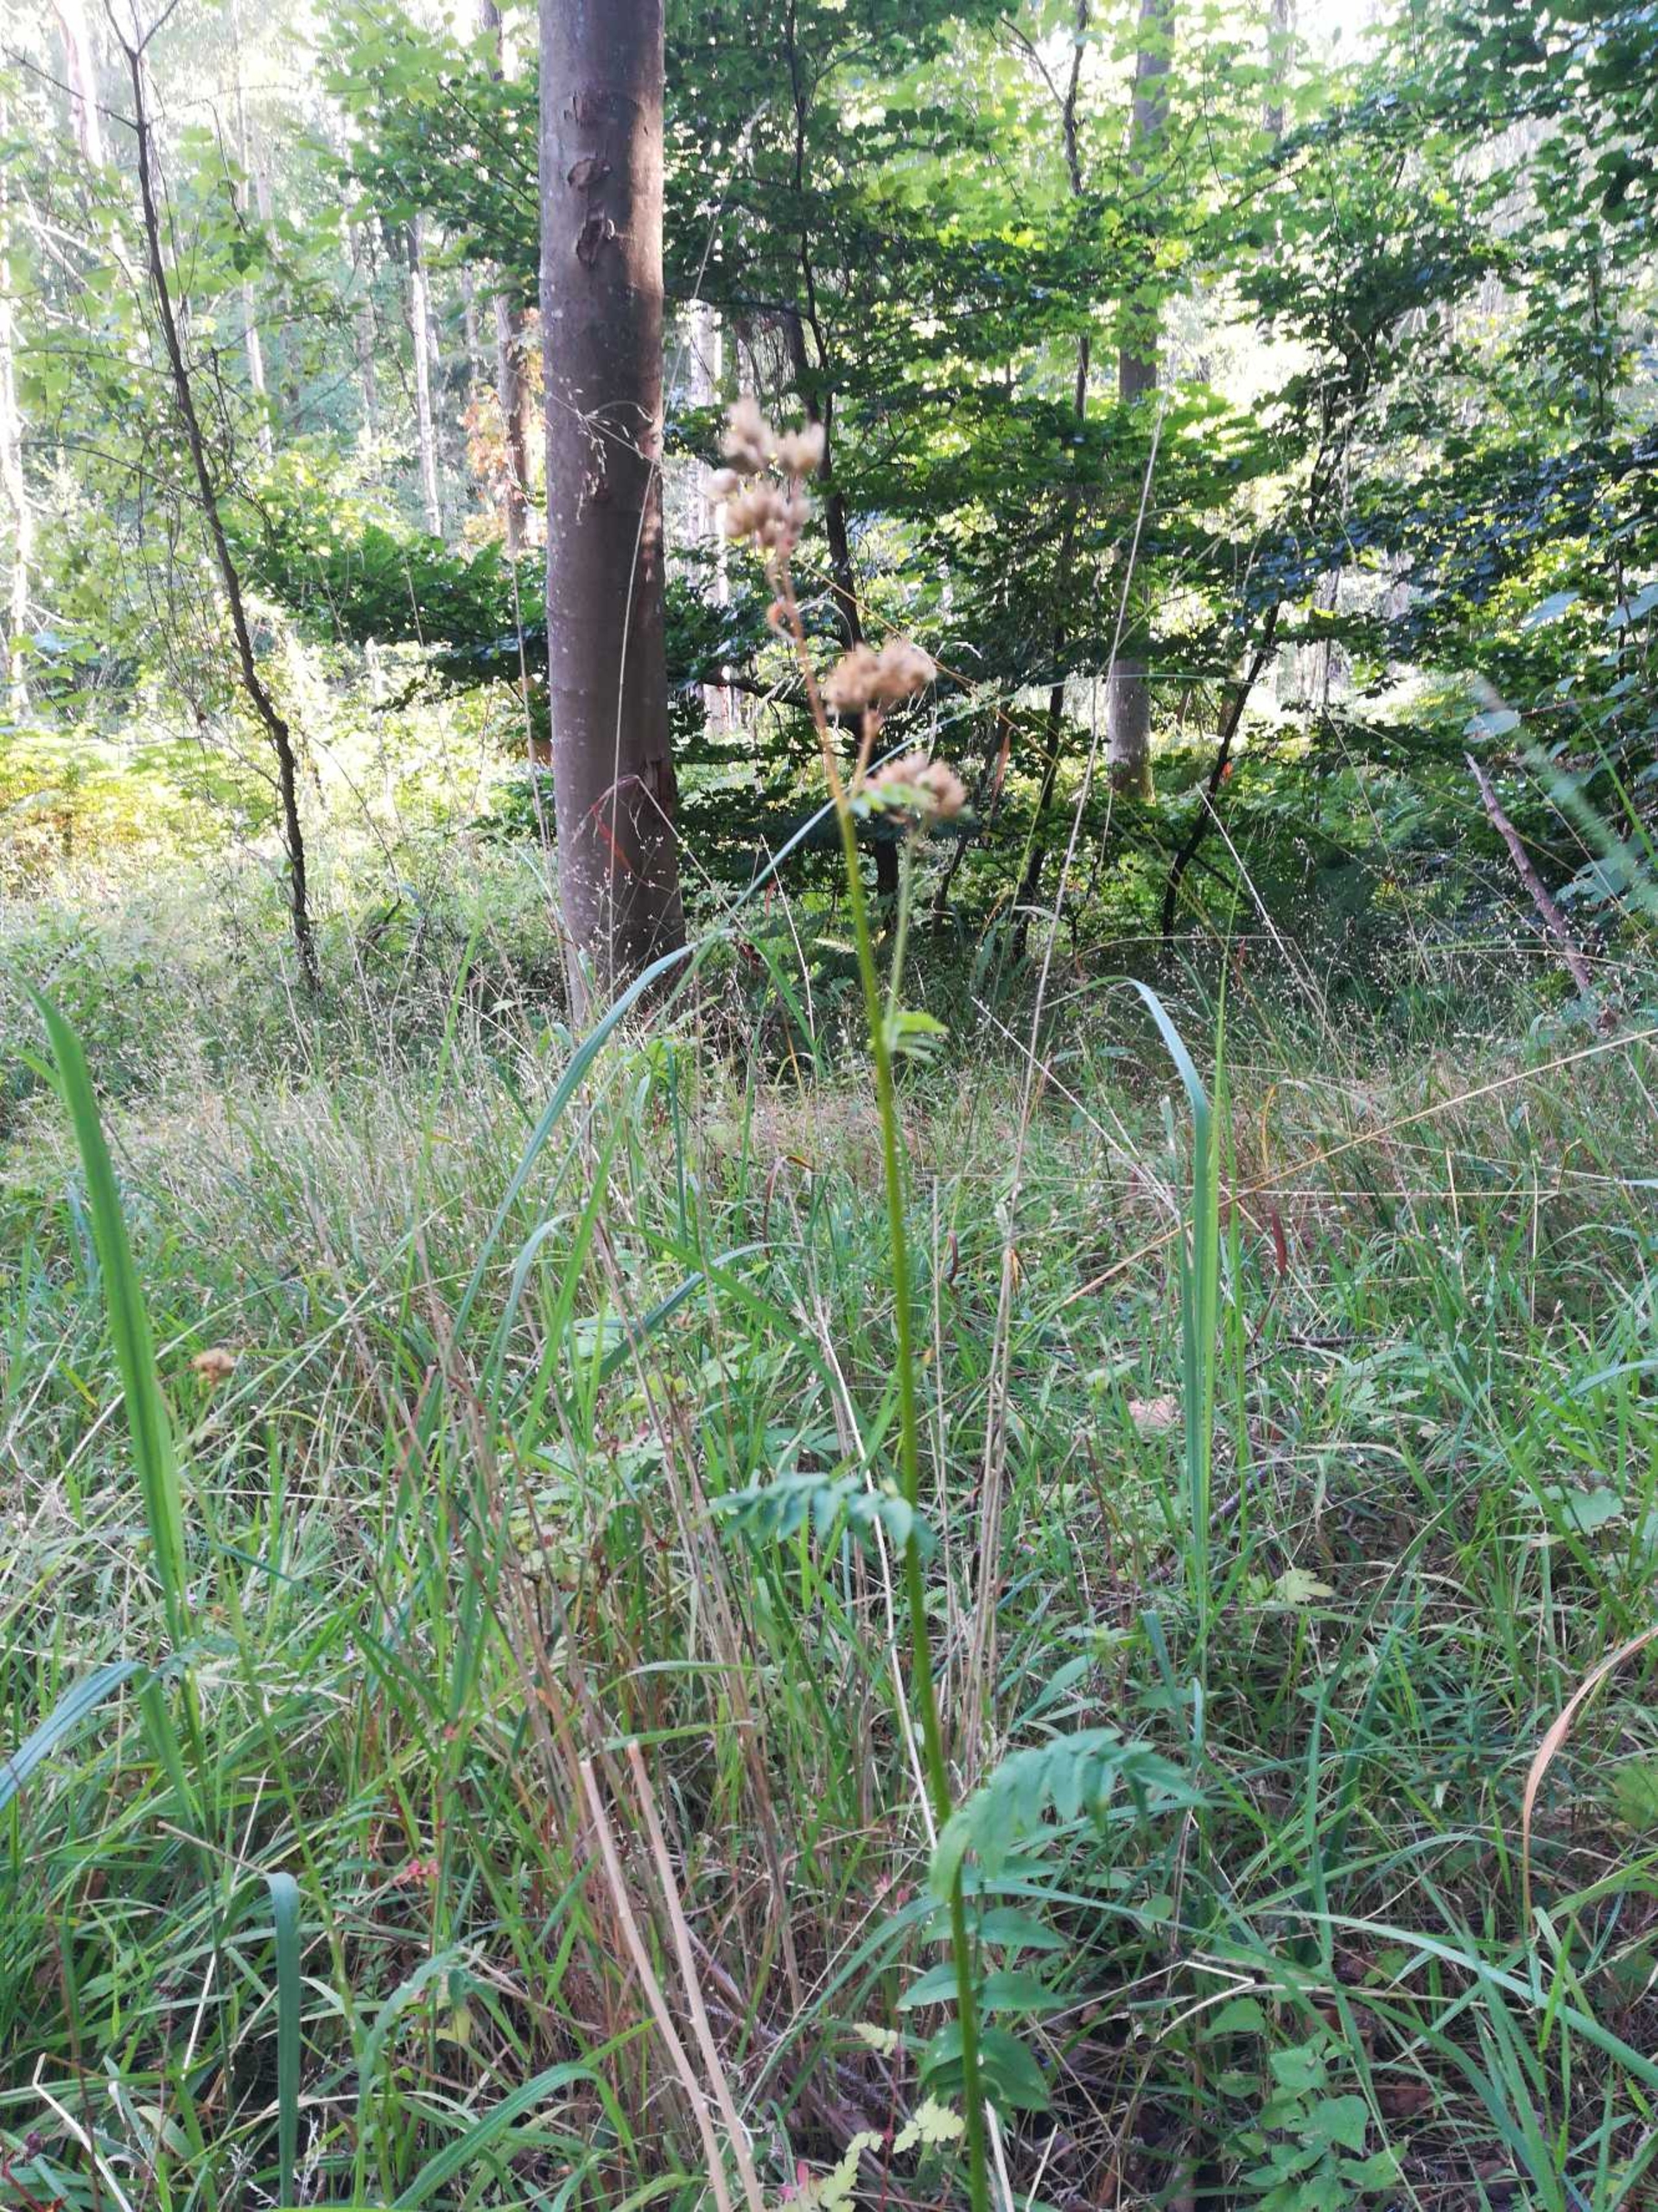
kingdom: Plantae
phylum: Tracheophyta
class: Magnoliopsida
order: Ericales
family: Polemoniaceae
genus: Polemonium
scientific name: Polemonium caeruleum
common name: Jakobsstige
